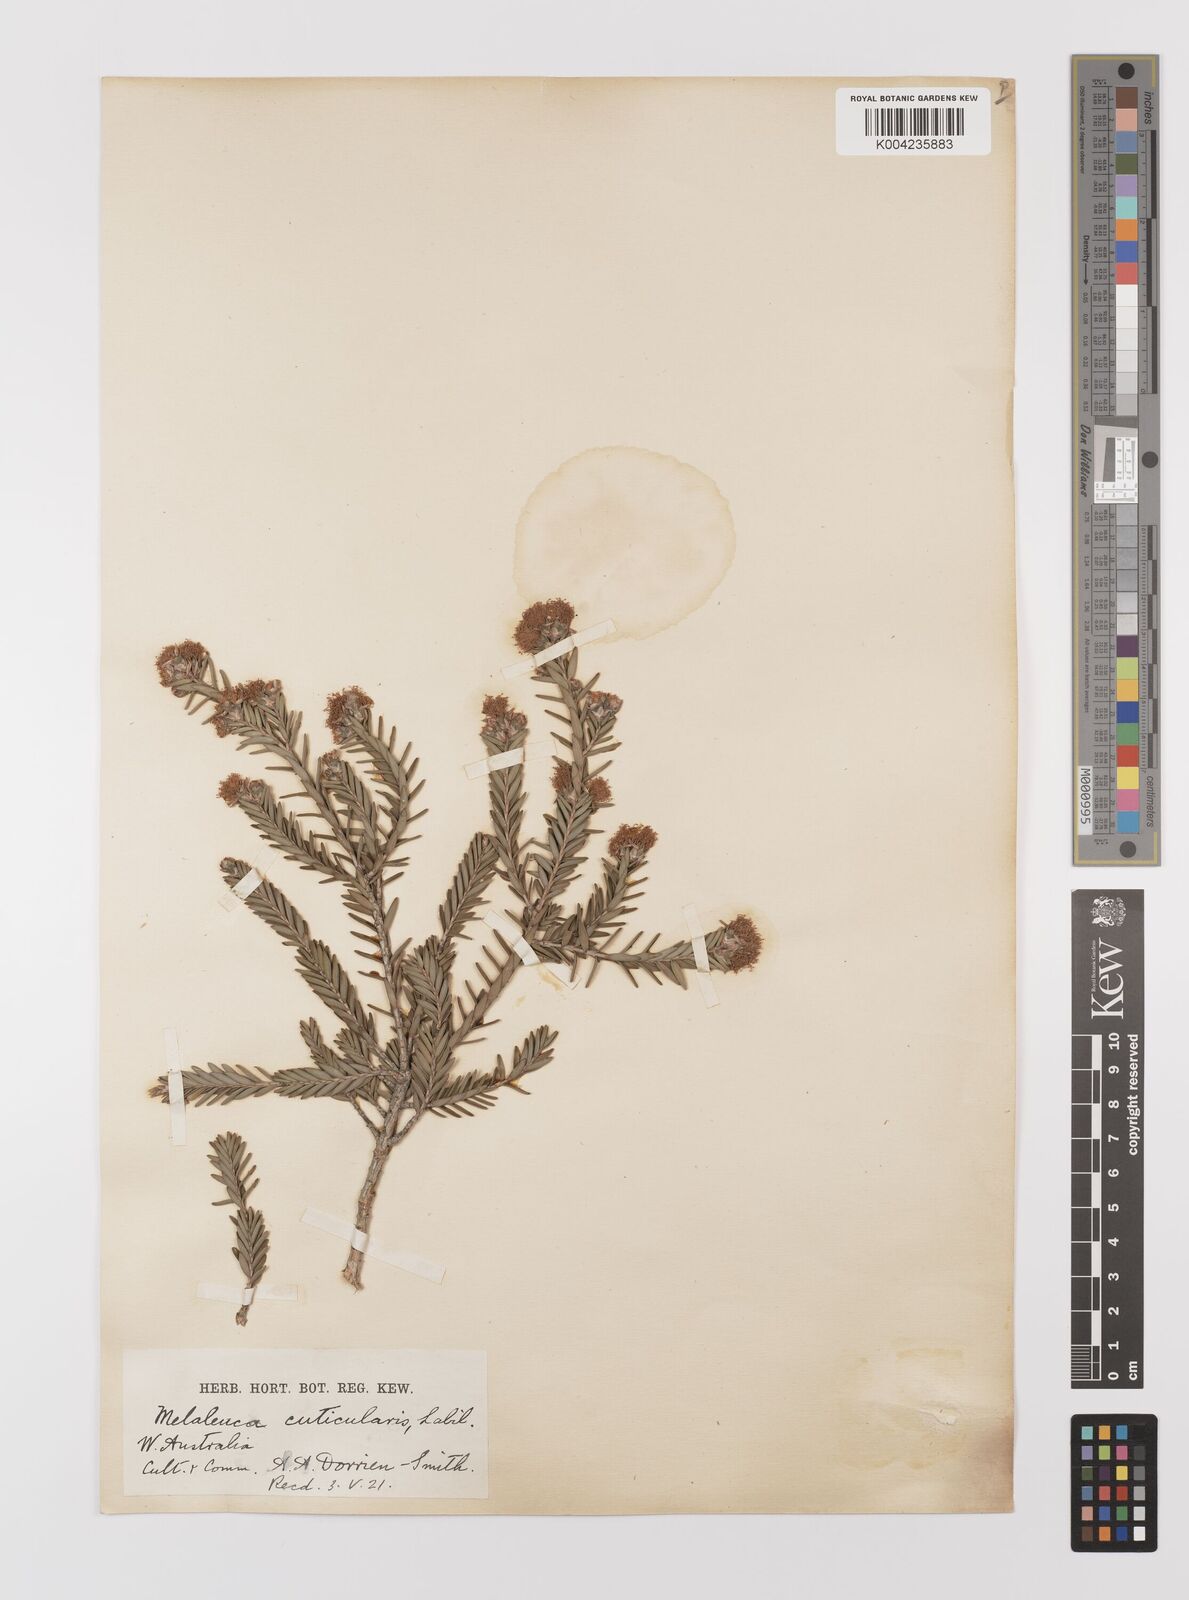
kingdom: Plantae
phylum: Tracheophyta
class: Magnoliopsida
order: Myrtales
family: Myrtaceae
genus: Melaleuca
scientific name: Melaleuca cuticularis
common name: Saltwater paperbark
